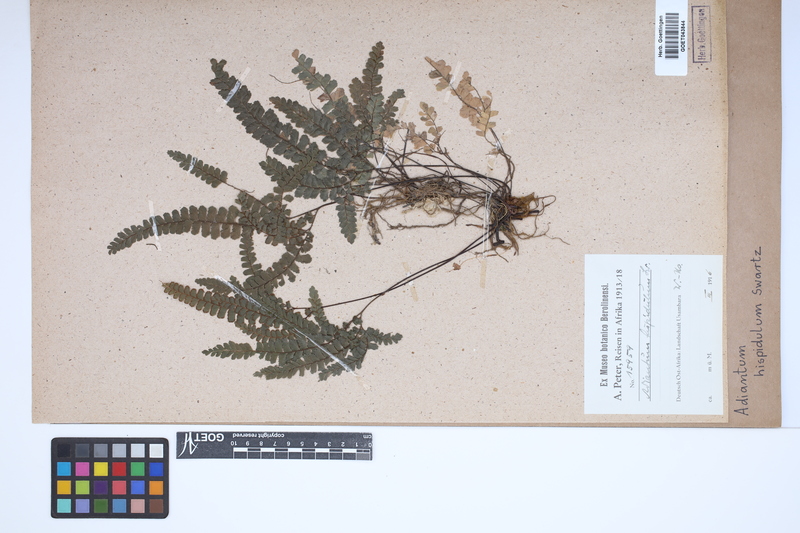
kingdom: Plantae
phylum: Tracheophyta
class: Polypodiopsida
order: Polypodiales
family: Pteridaceae
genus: Adiantum
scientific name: Adiantum hispidulum
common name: Rough maidenhair
